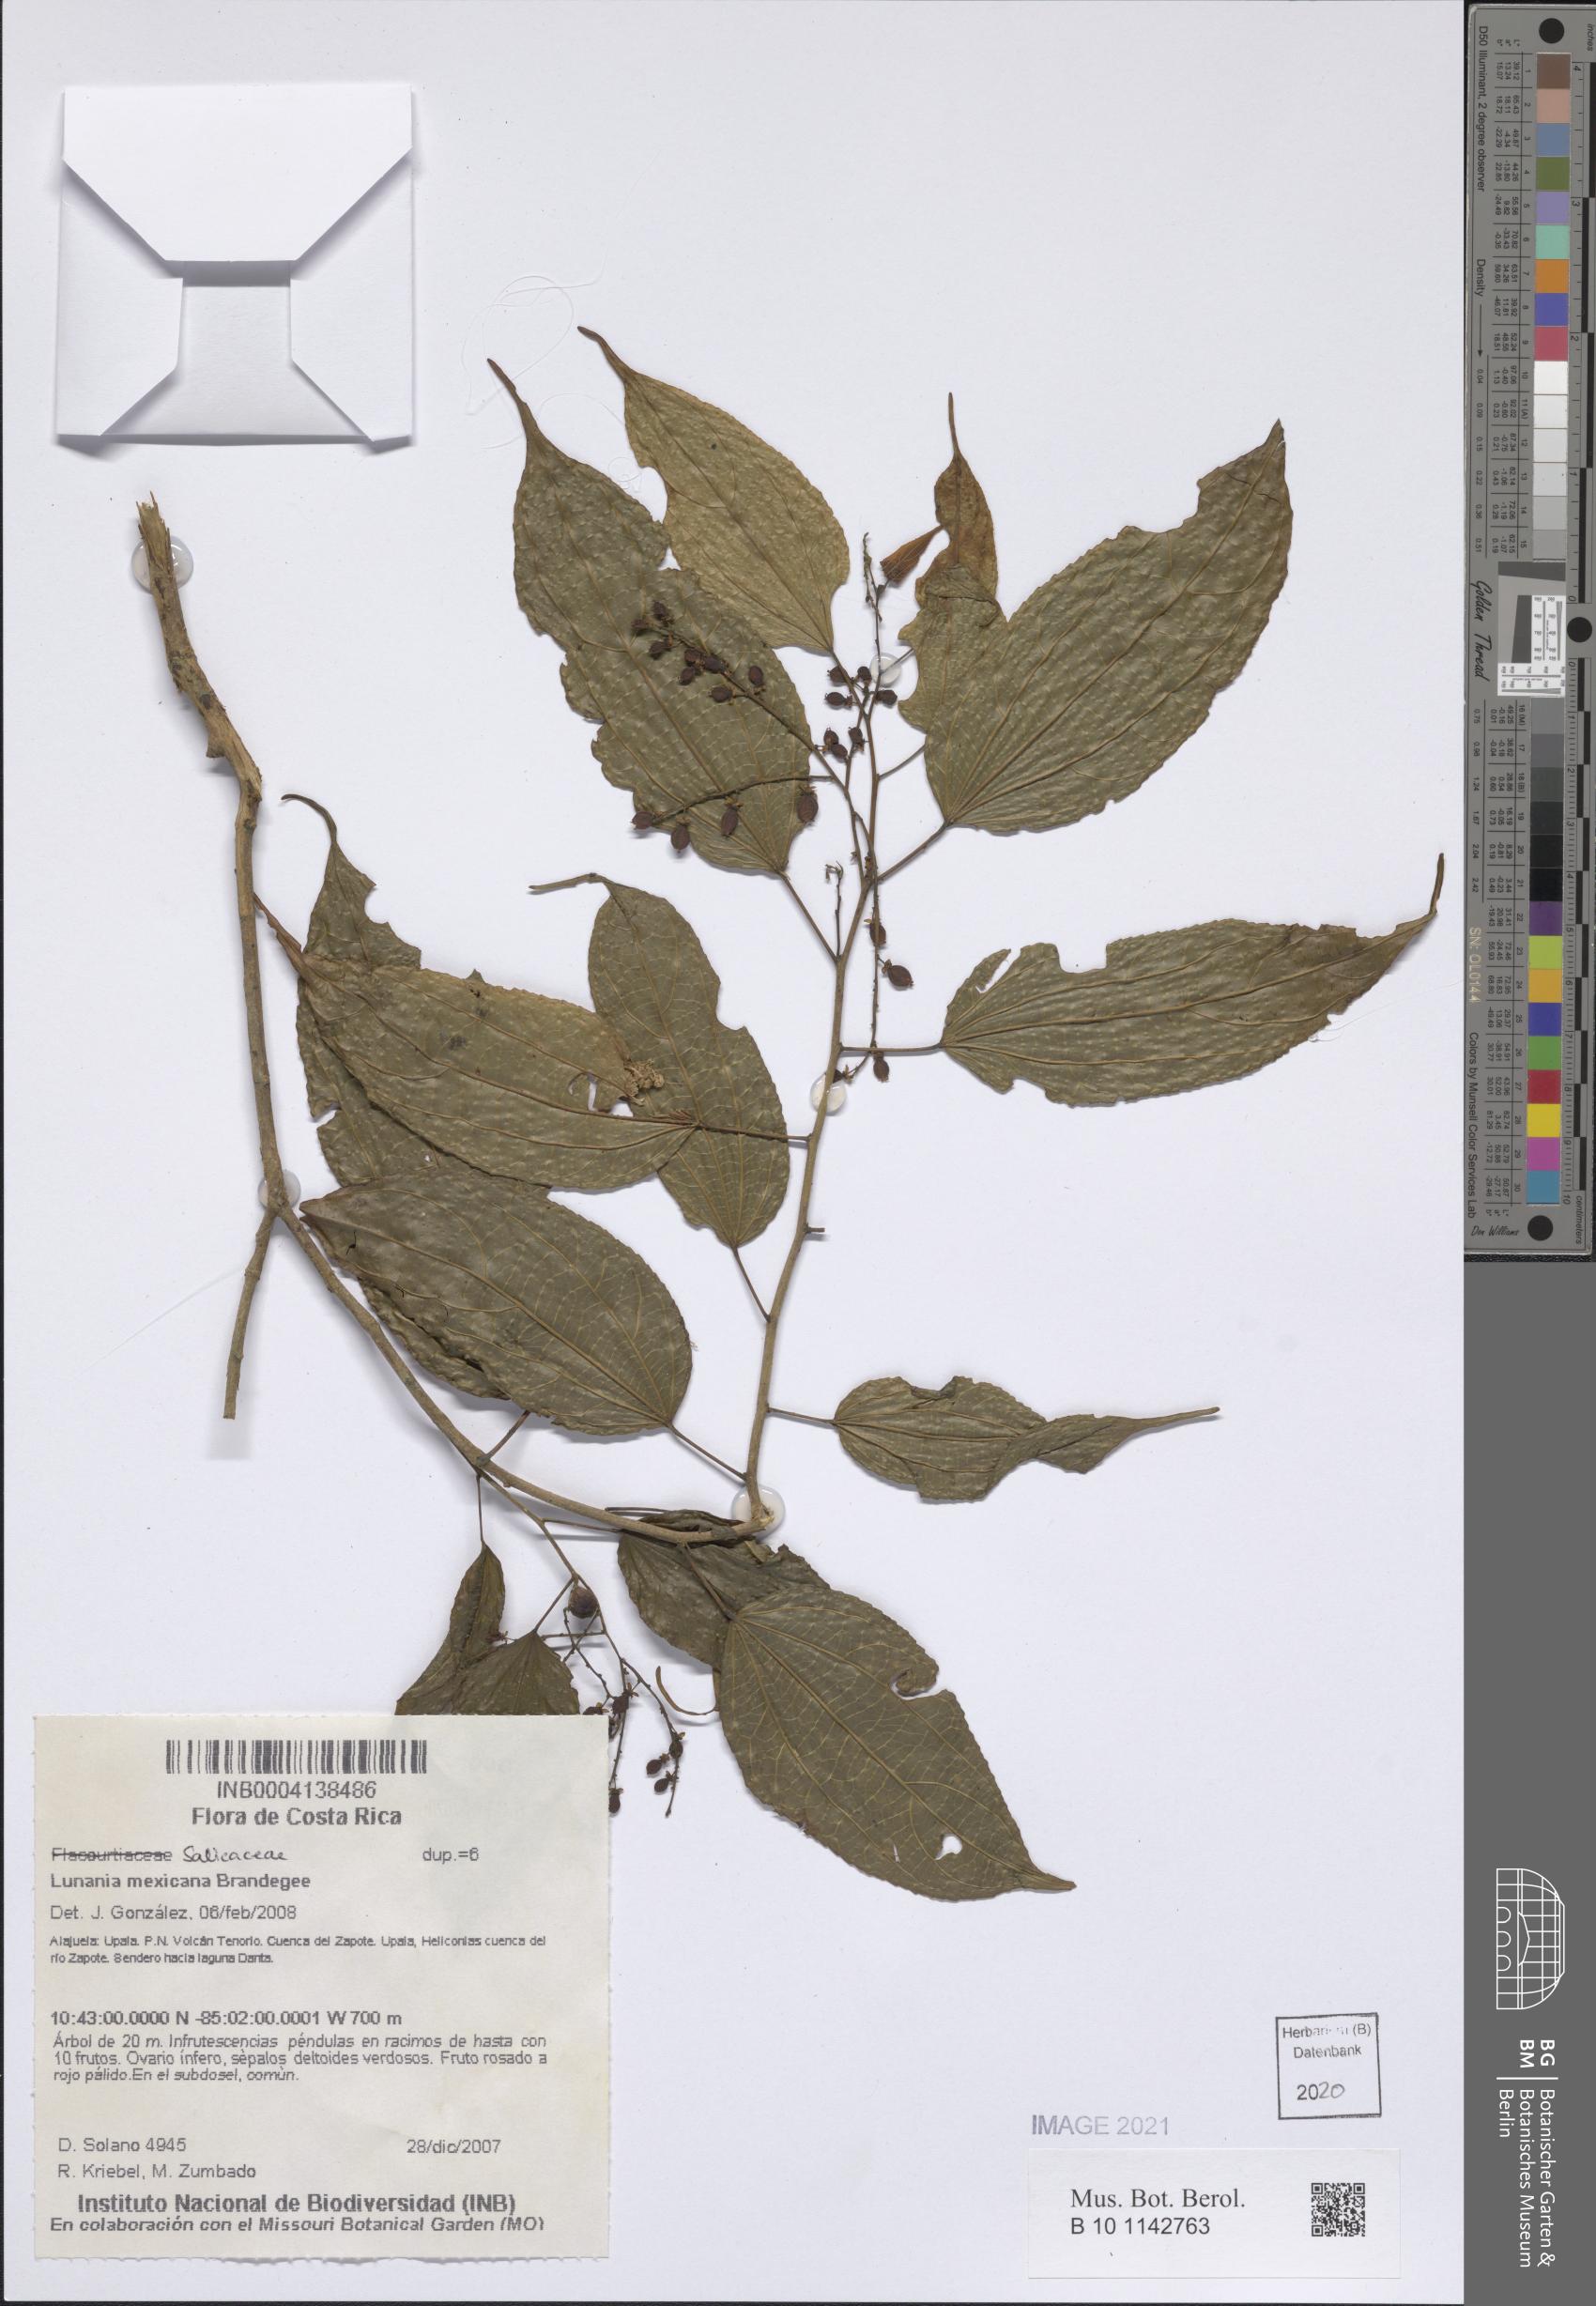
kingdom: Plantae
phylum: Tracheophyta
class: Magnoliopsida
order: Malpighiales
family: Salicaceae
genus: Lunania
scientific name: Lunania mexicana
